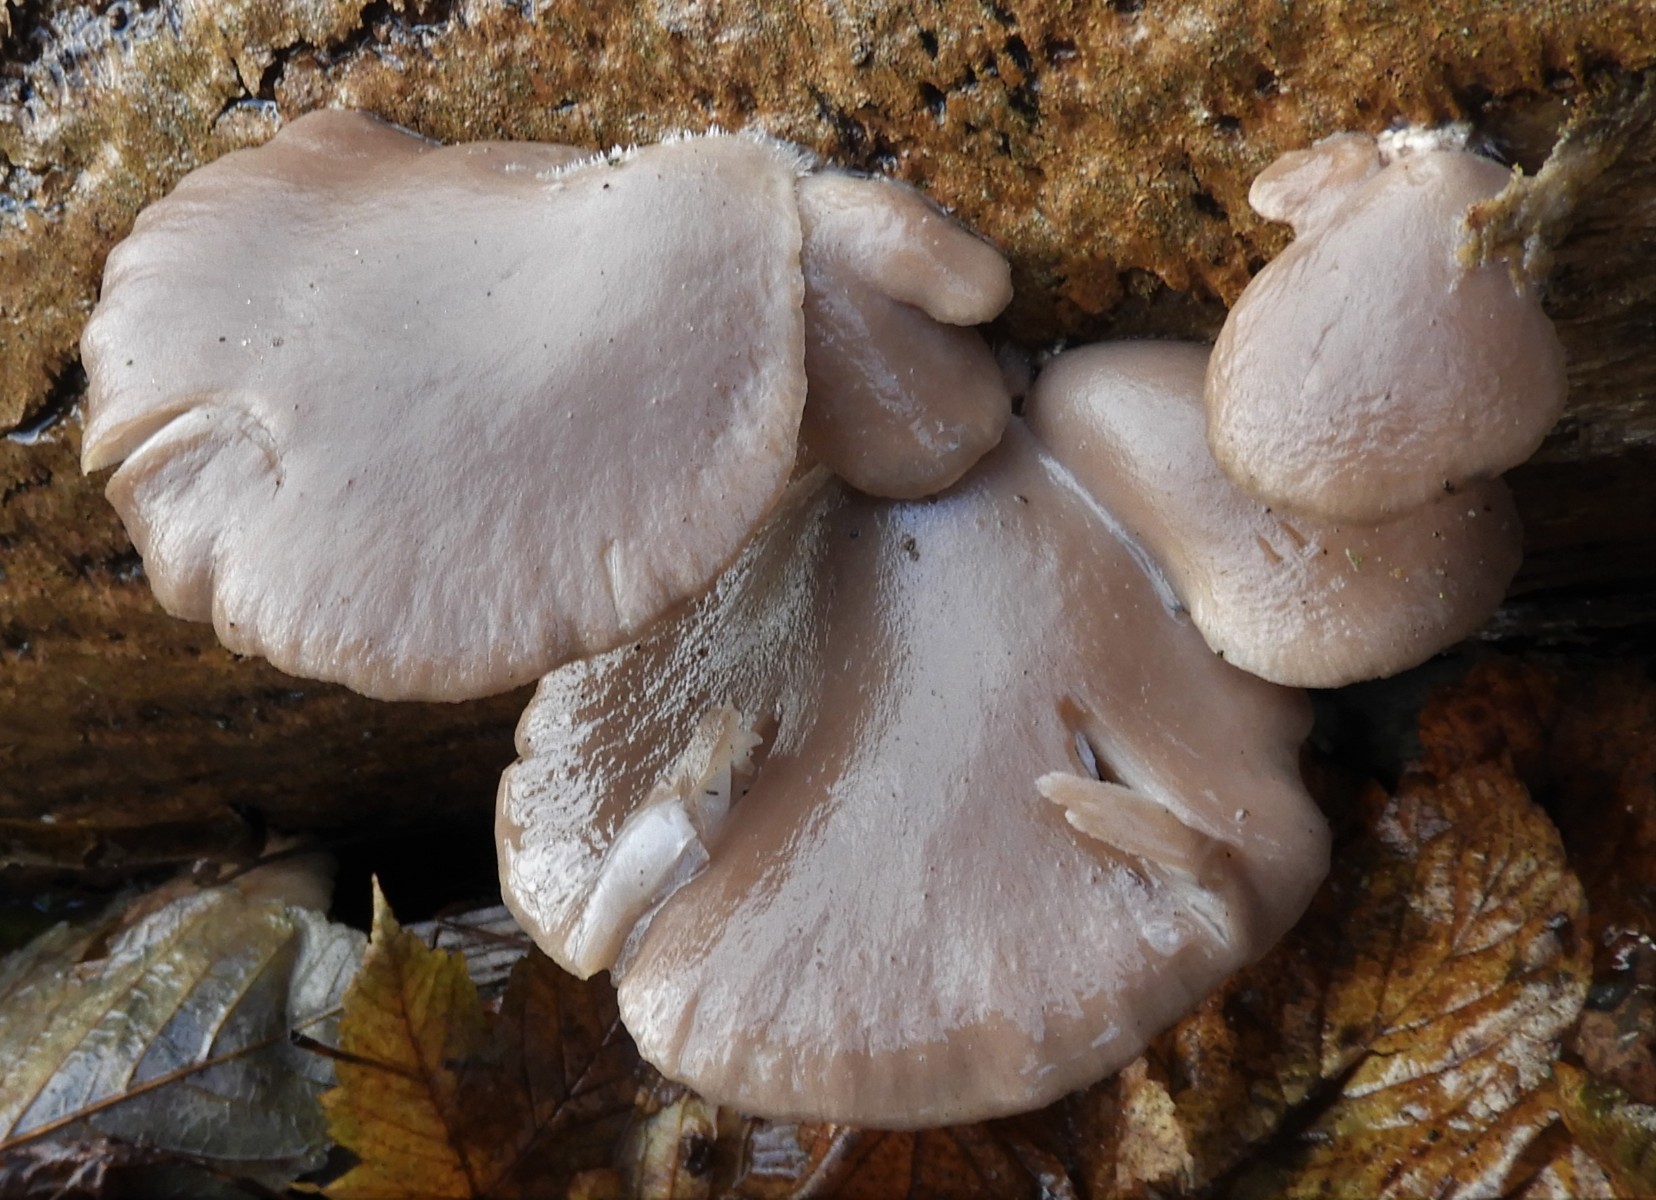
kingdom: Fungi
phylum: Basidiomycota
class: Agaricomycetes
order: Agaricales
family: Pleurotaceae
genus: Pleurotus
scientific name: Pleurotus ostreatus
